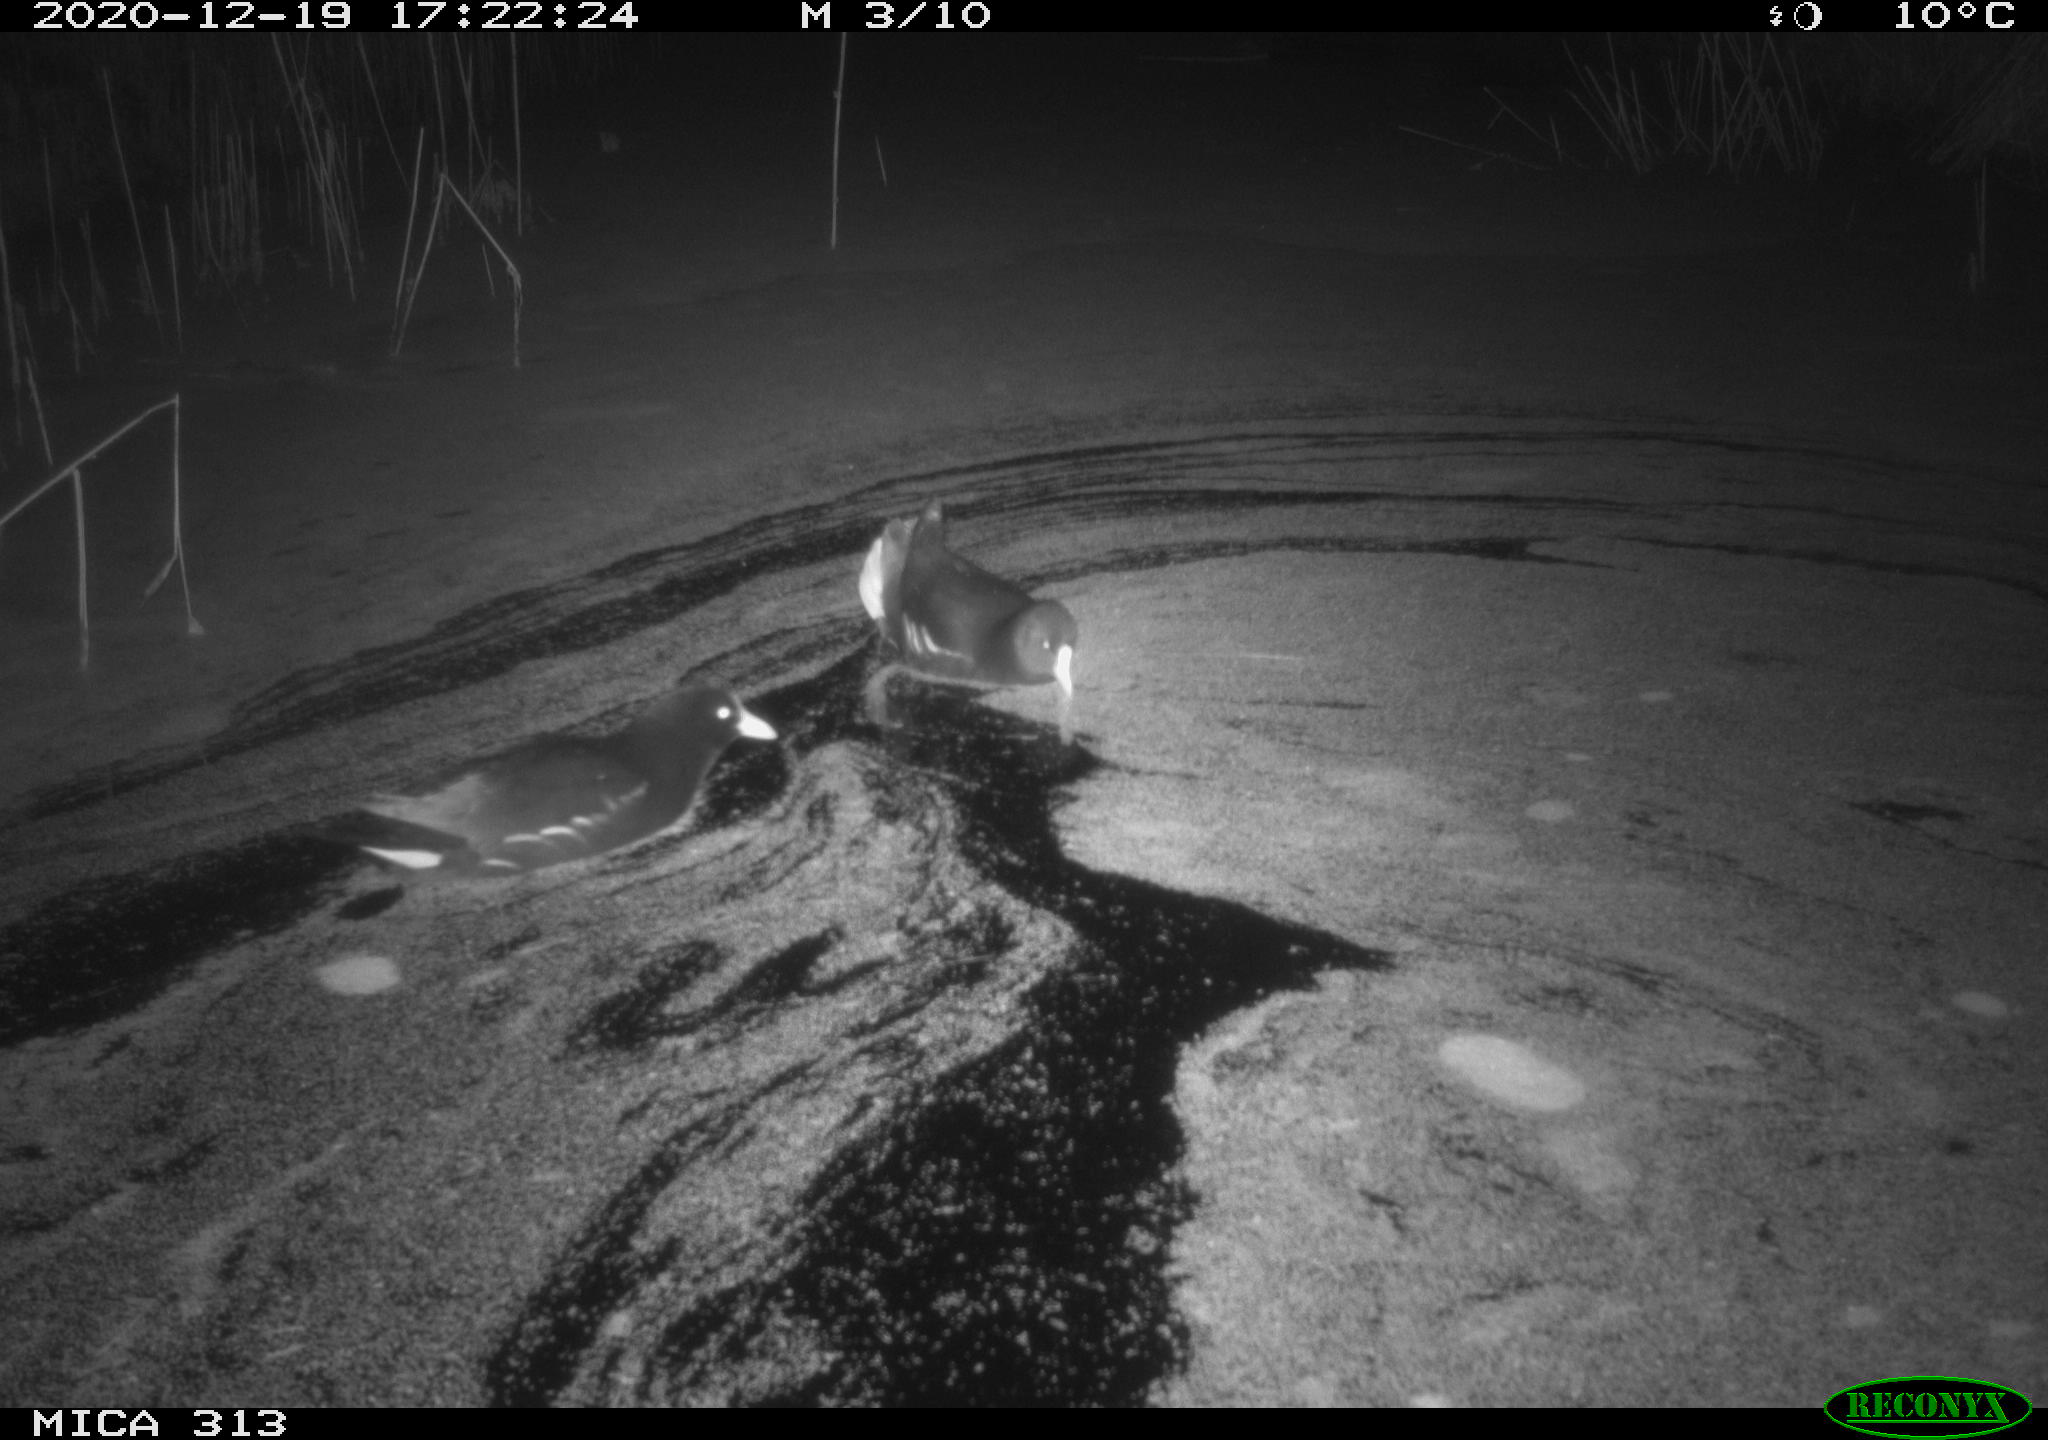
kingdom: Animalia
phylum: Chordata
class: Aves
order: Gruiformes
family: Rallidae
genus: Gallinula
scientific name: Gallinula chloropus
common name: Common moorhen
